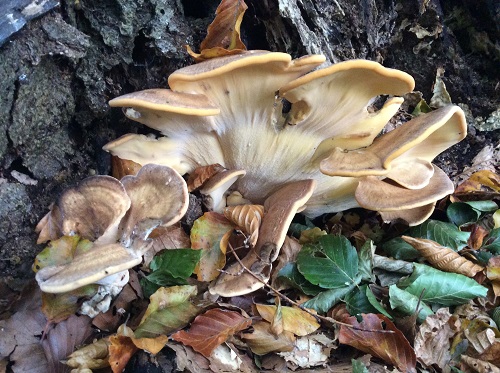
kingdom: Fungi
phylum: Basidiomycota
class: Agaricomycetes
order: Polyporales
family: Meripilaceae
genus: Meripilus
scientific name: Meripilus giganteus
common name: kæmpeporesvamp
